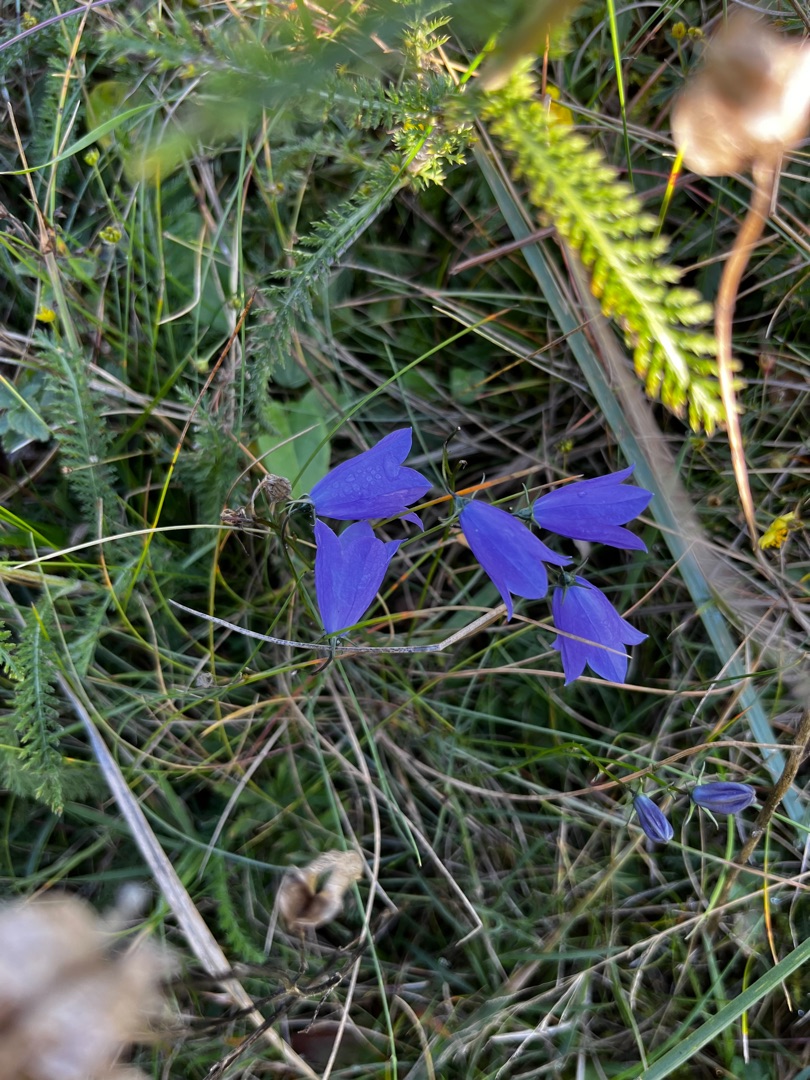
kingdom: Plantae
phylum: Tracheophyta
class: Magnoliopsida
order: Asterales
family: Campanulaceae
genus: Campanula
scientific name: Campanula rotundifolia
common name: Liden klokke
